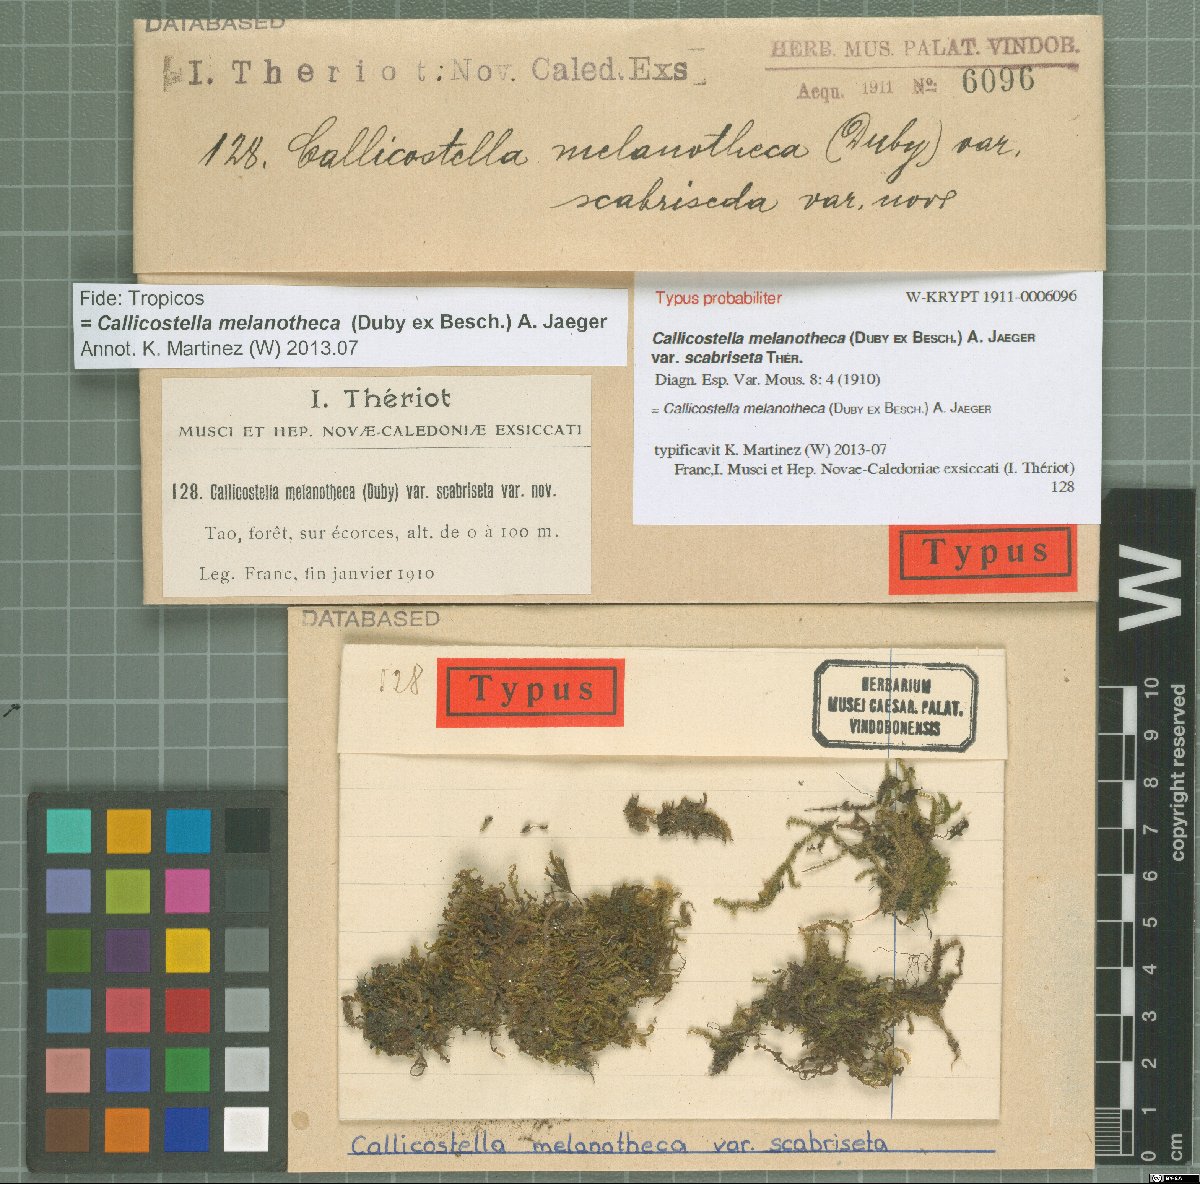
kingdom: Plantae
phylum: Bryophyta
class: Bryopsida
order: Hookeriales
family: Pilotrichaceae
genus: Callicostella
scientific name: Callicostella melanotheca
